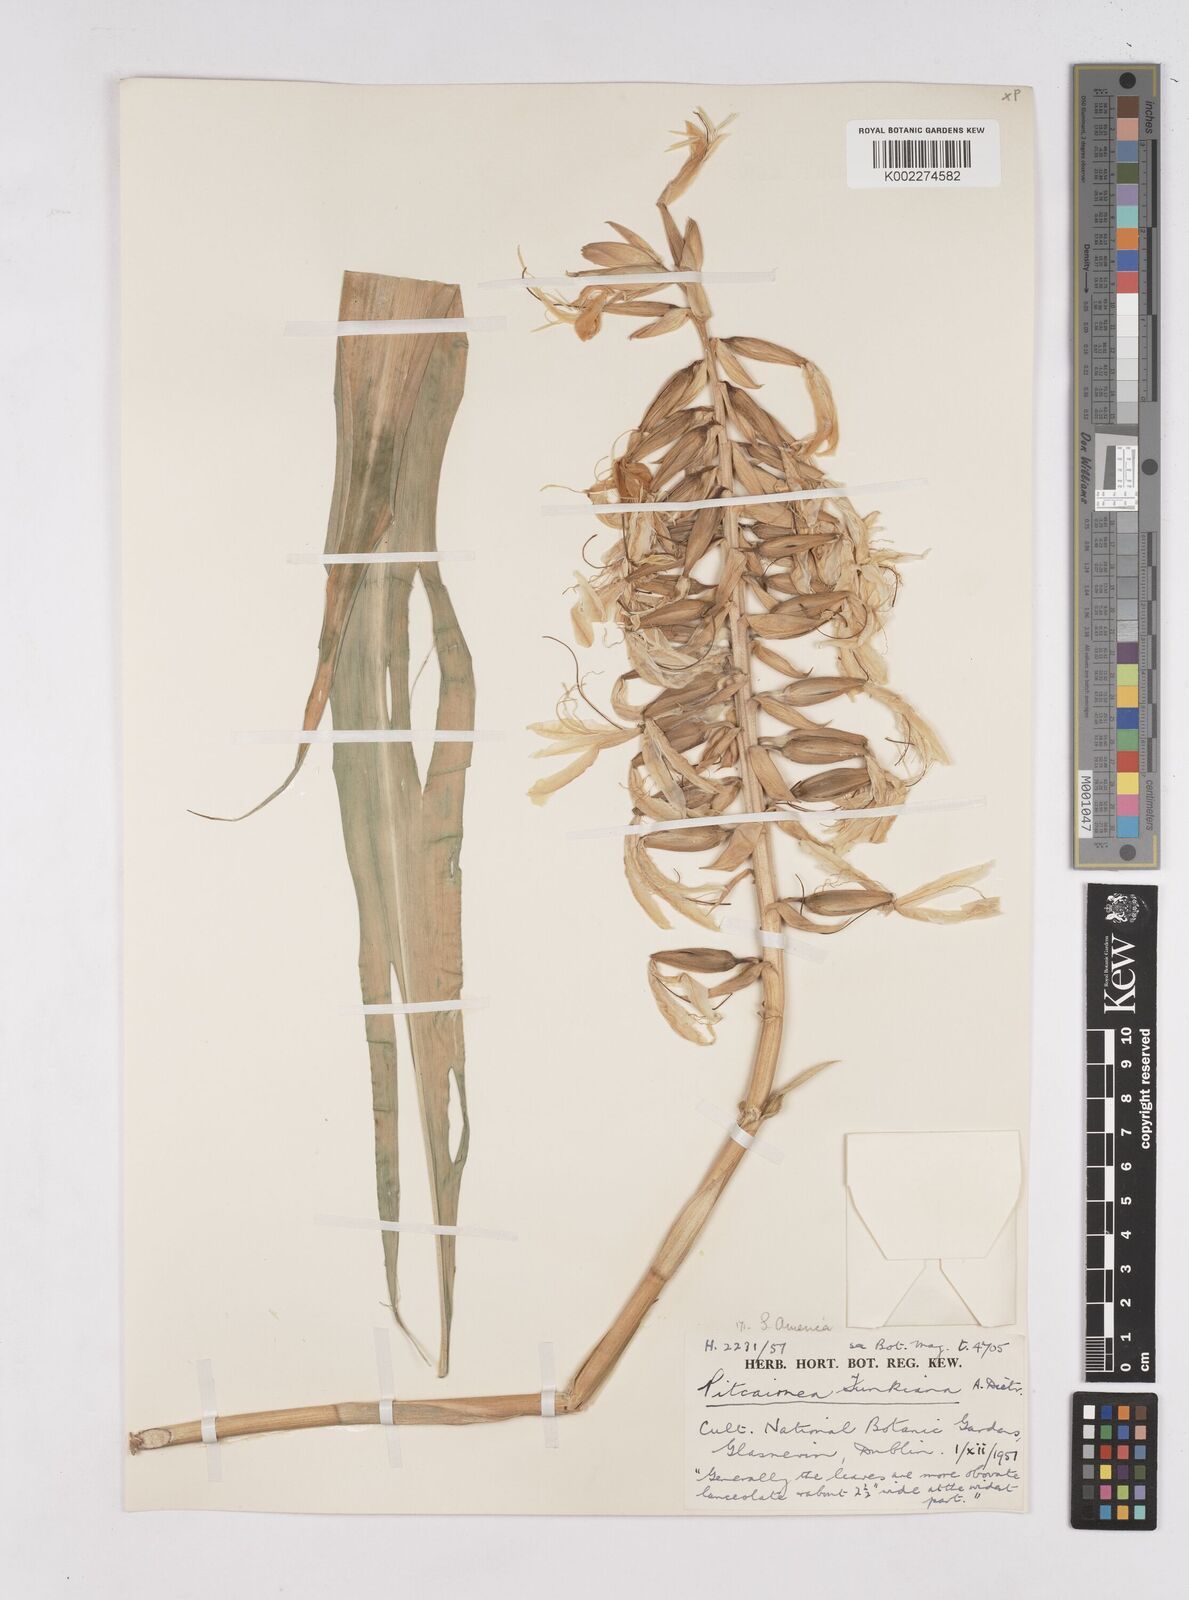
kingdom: Plantae
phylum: Tracheophyta
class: Liliopsida
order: Poales
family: Bromeliaceae
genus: Pitcairnia
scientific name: Pitcairnia maidifolia
